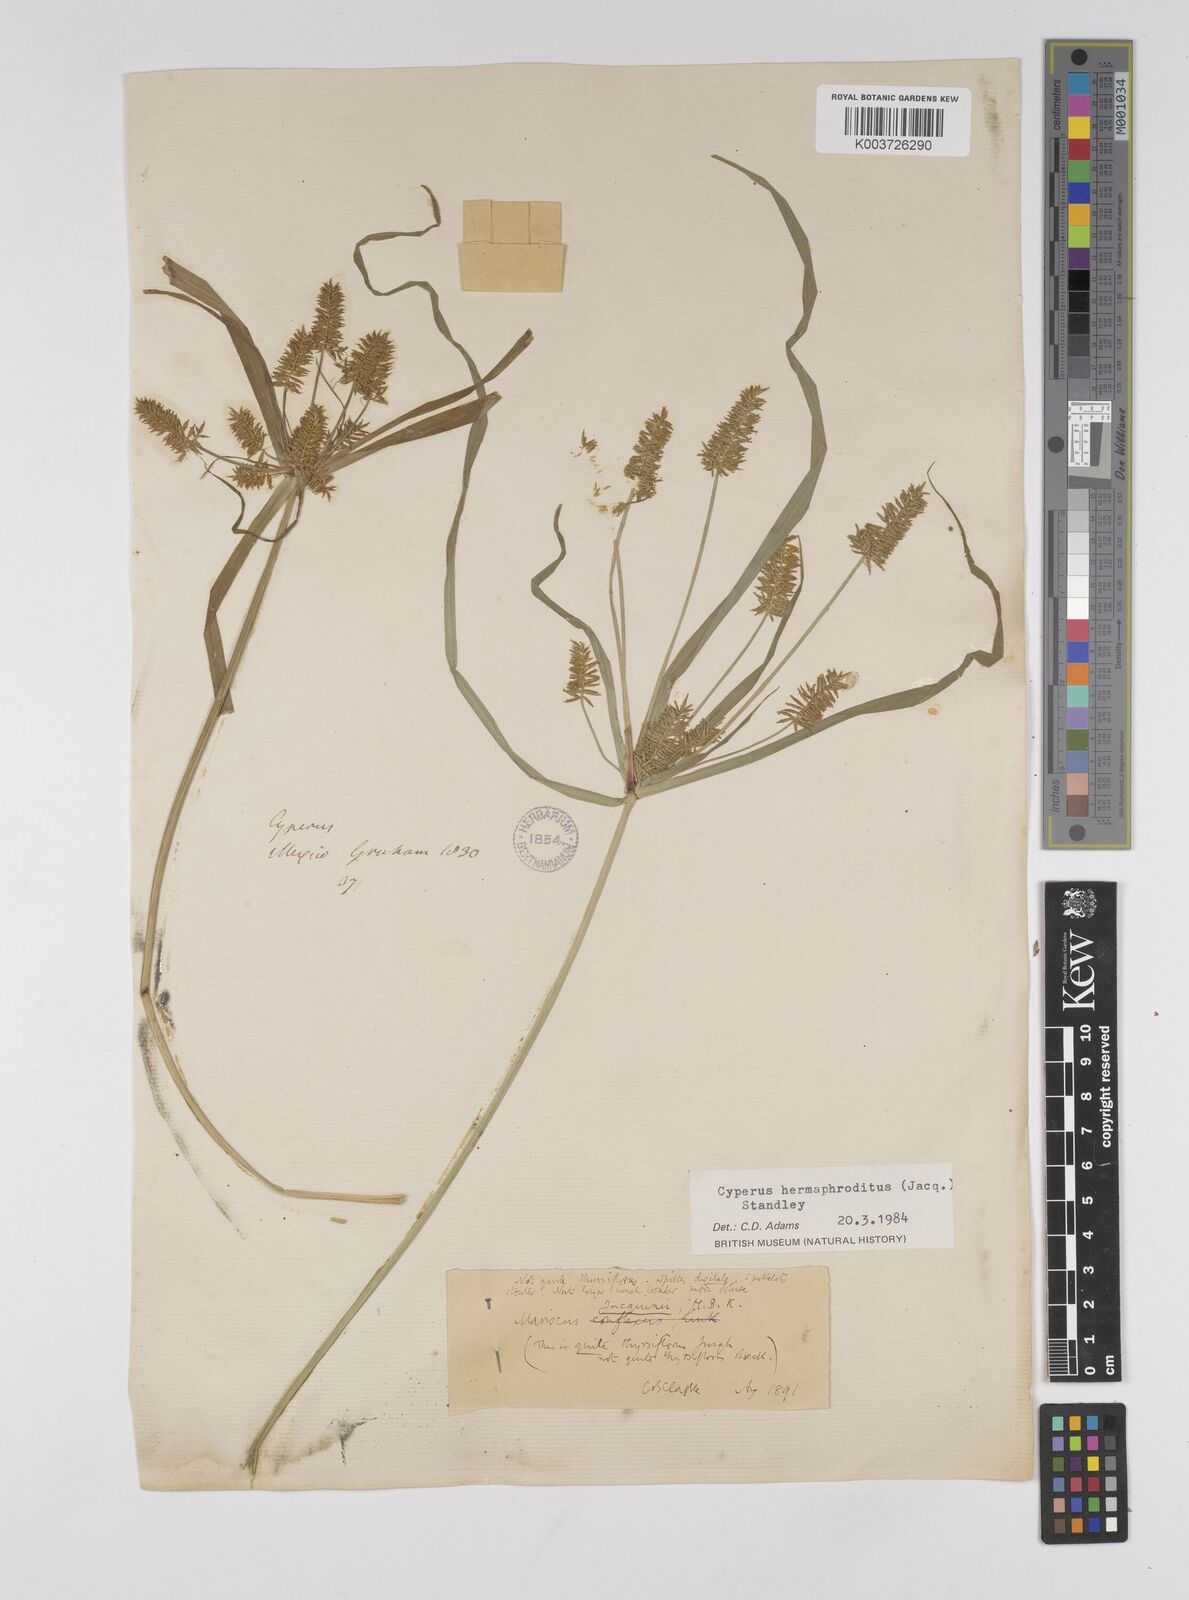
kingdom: Plantae
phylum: Tracheophyta
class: Liliopsida
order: Poales
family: Cyperaceae
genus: Cyperus
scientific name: Cyperus thyrsiflorus
